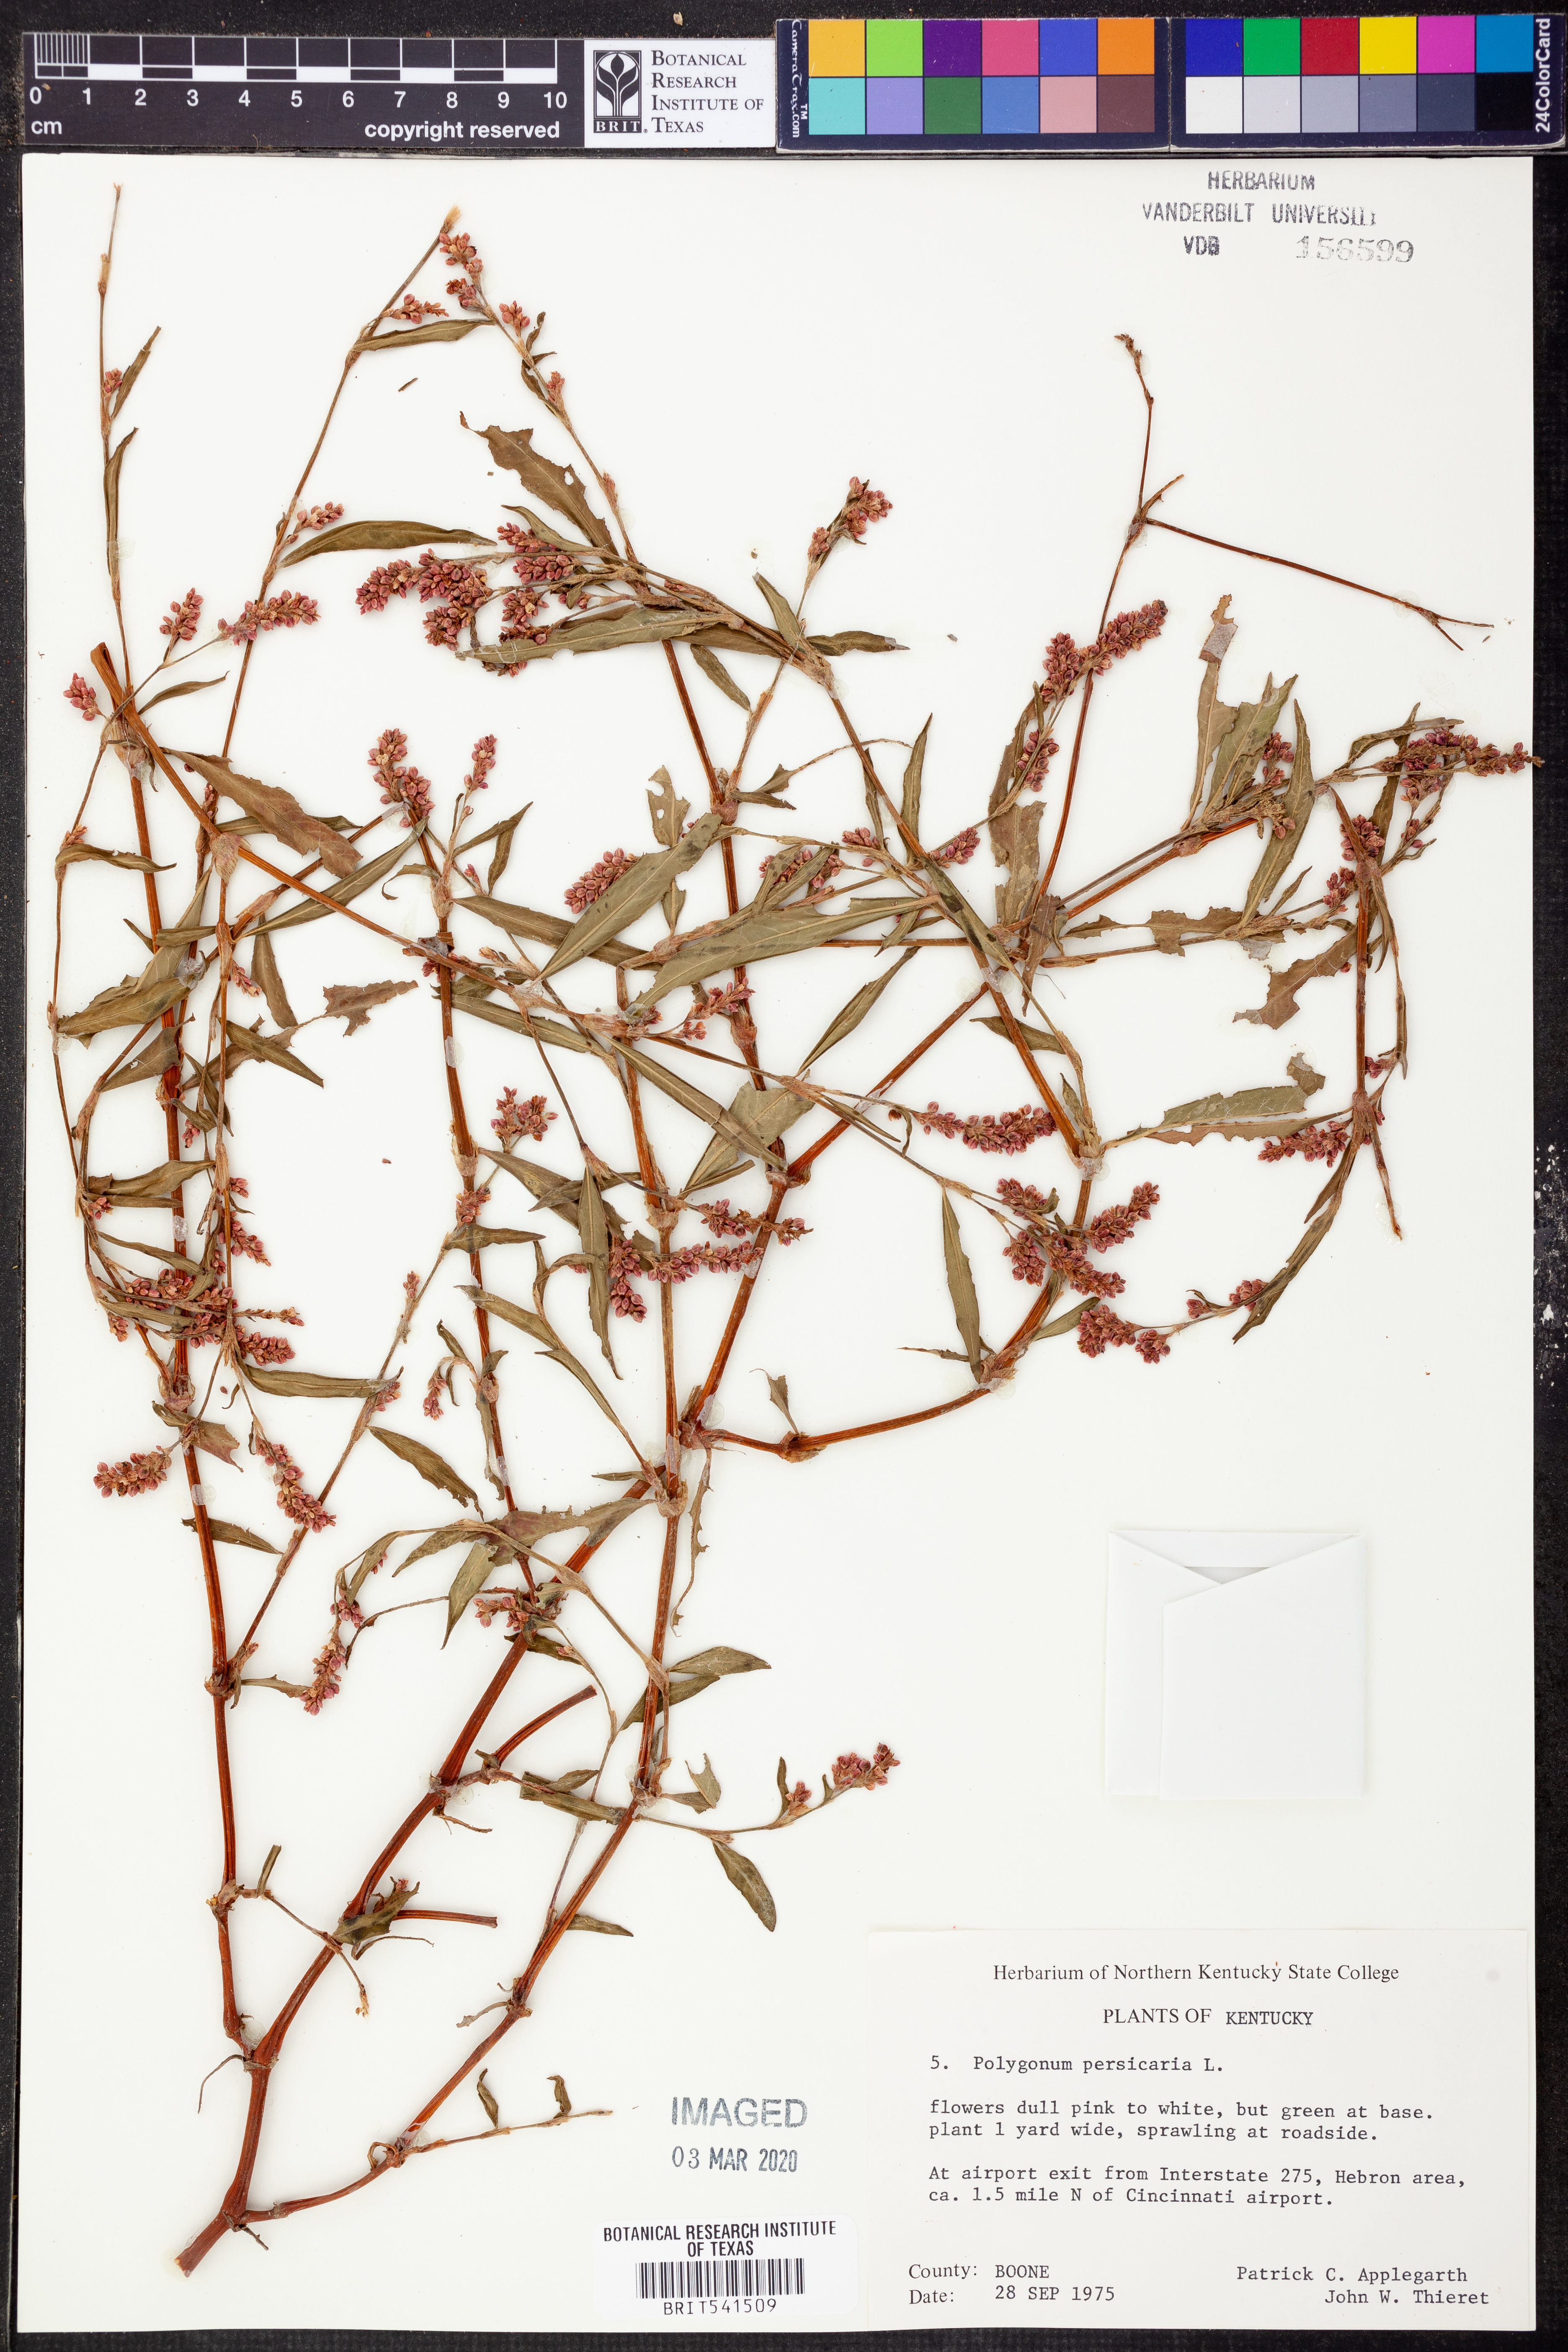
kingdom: Plantae
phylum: Tracheophyta
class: Magnoliopsida
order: Caryophyllales
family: Polygonaceae
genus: Persicaria
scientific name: Persicaria maculosa
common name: Redshank
